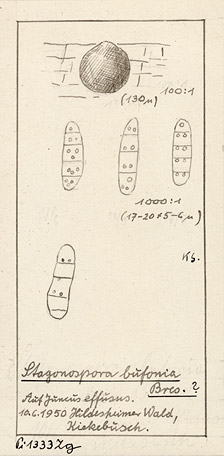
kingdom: Fungi
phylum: Ascomycota
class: Dothideomycetes
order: Pleosporales
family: Phaeosphaeriaceae
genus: Stagonospora
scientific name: Stagonospora bufonia
